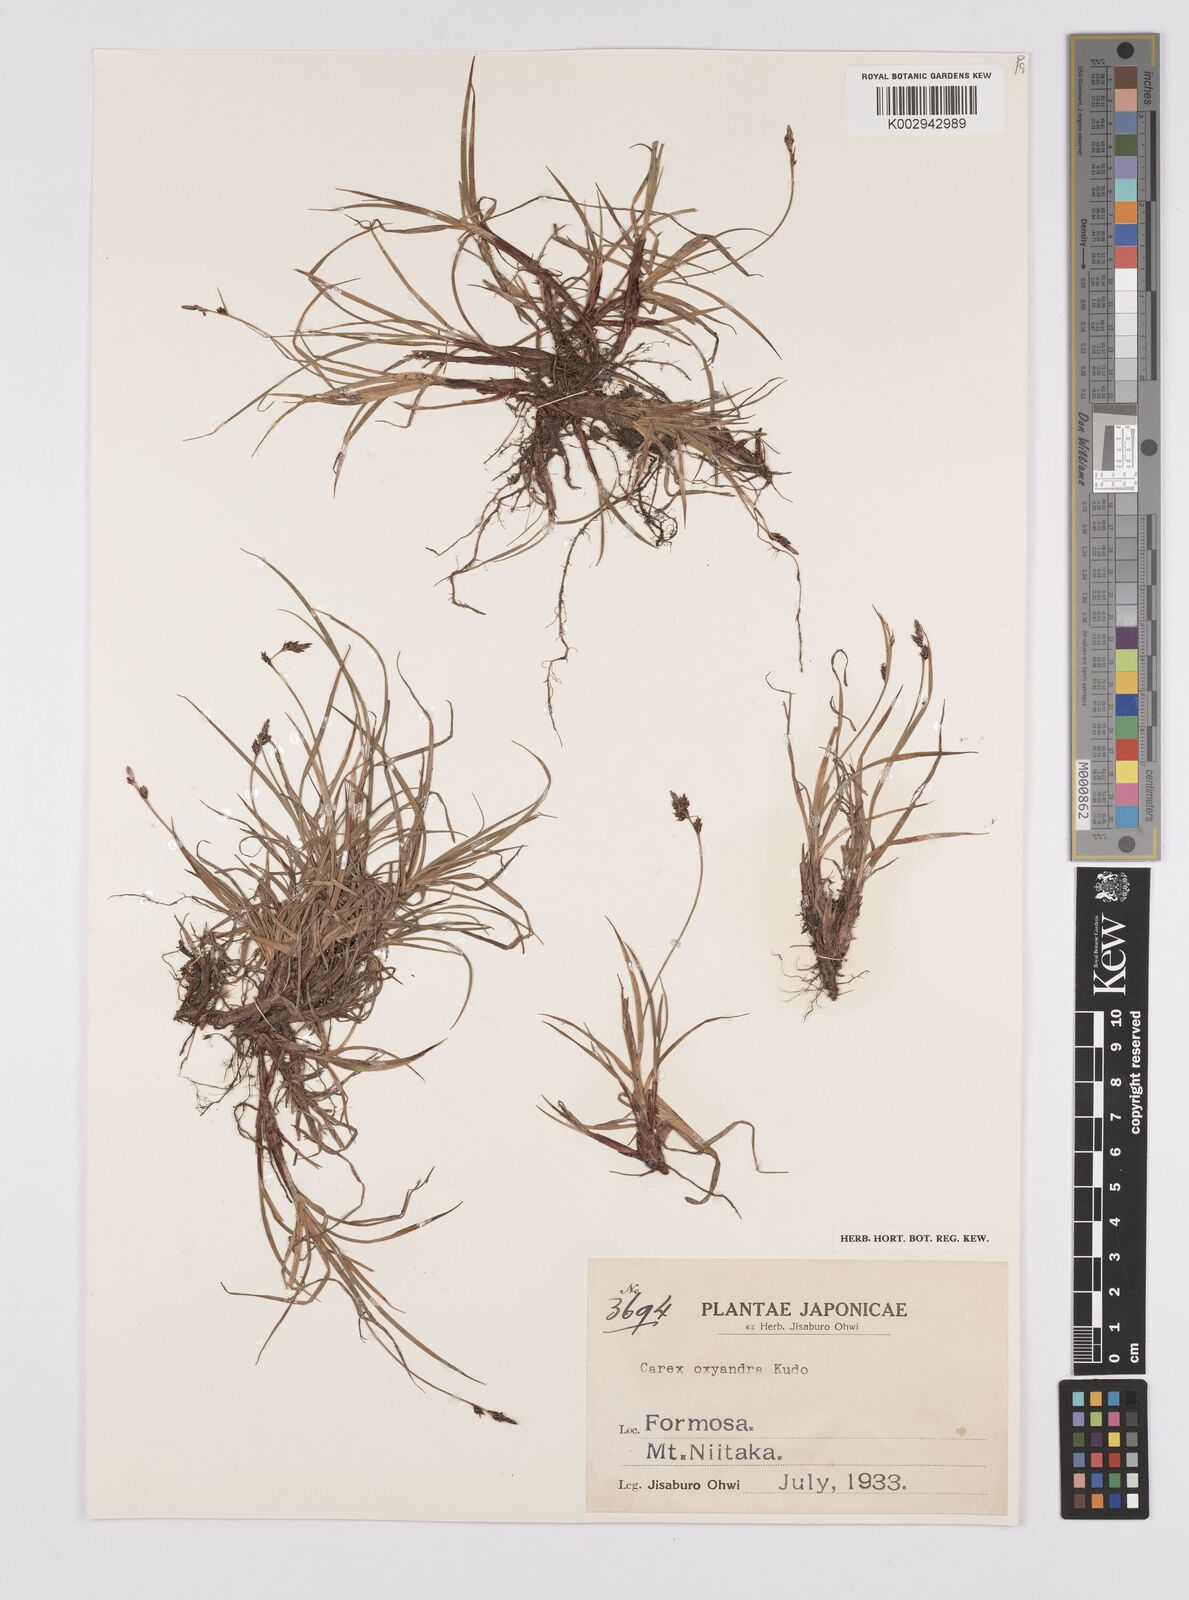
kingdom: Plantae
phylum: Tracheophyta
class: Liliopsida
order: Poales
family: Cyperaceae
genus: Carex
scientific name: Carex oxyandra
